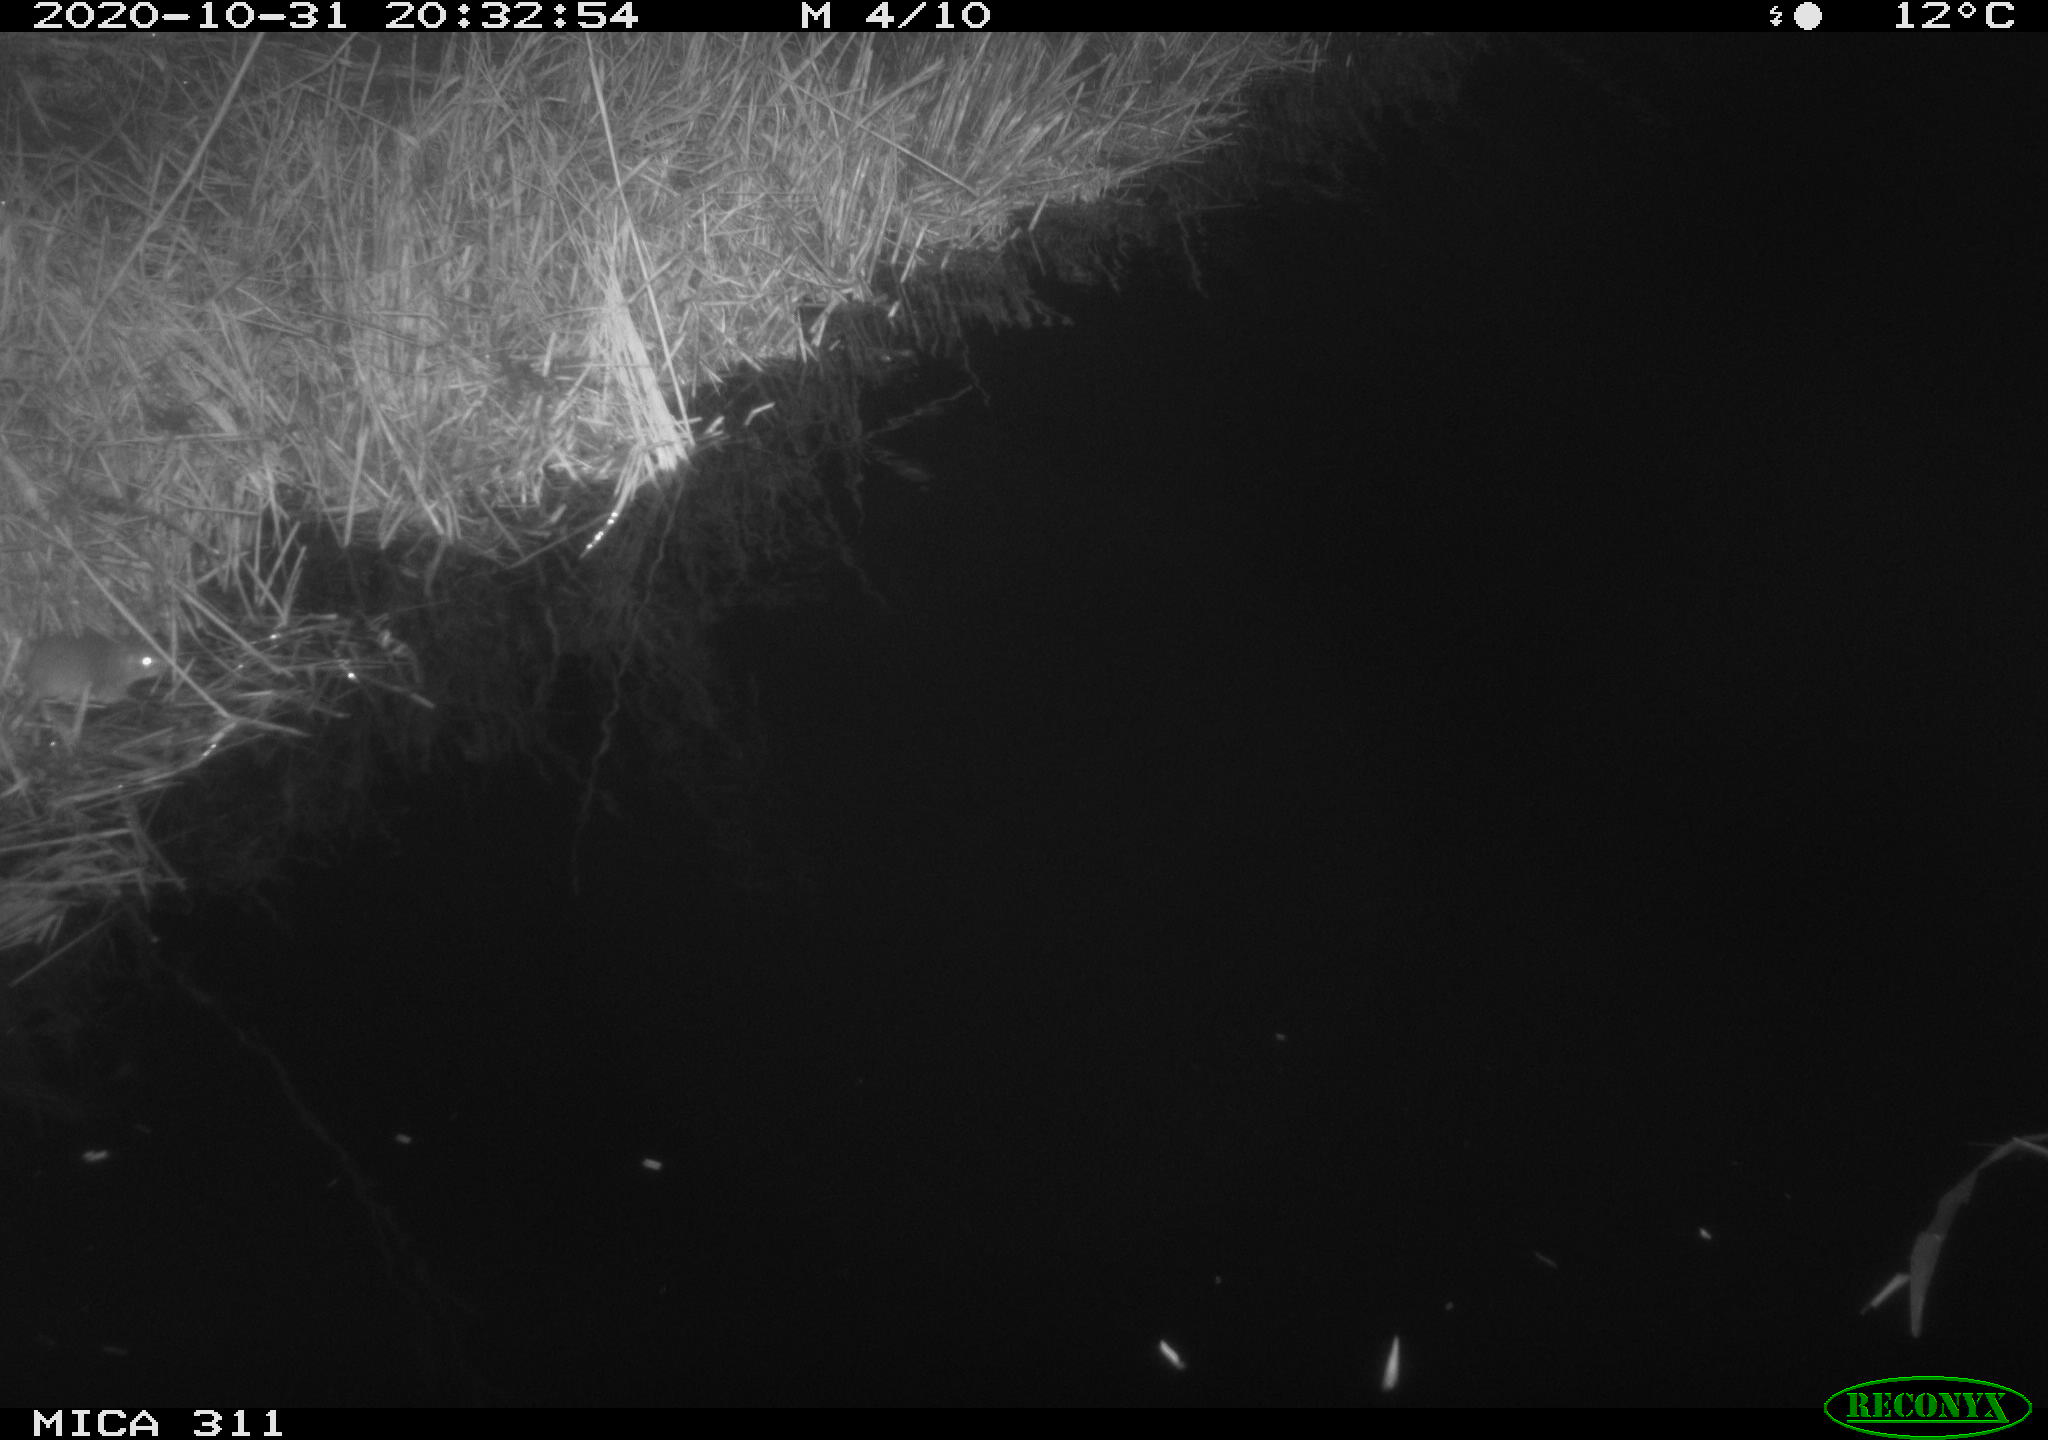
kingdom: Animalia
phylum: Chordata
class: Mammalia
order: Rodentia
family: Muridae
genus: Rattus
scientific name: Rattus norvegicus
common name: Brown rat
